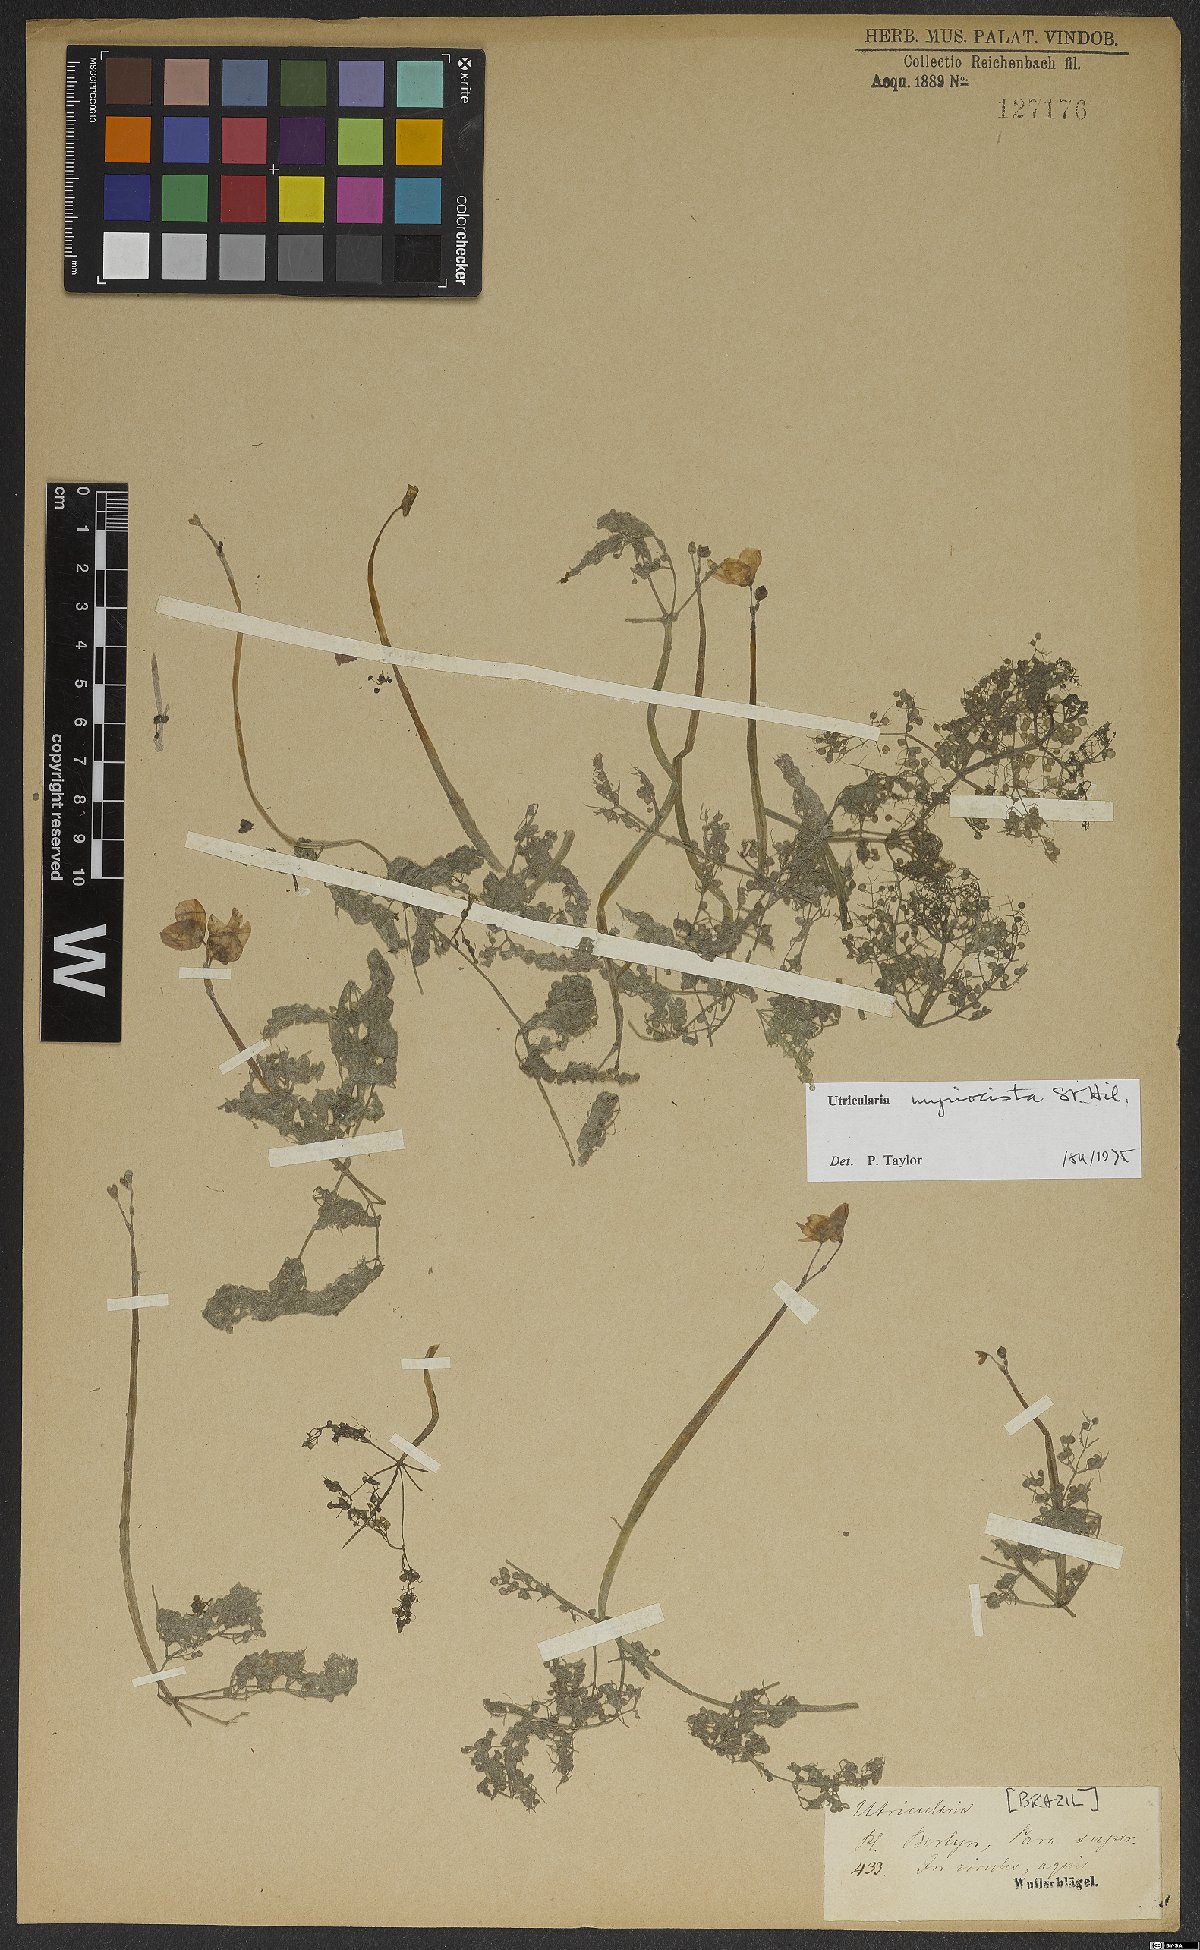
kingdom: Plantae
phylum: Tracheophyta
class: Magnoliopsida
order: Lamiales
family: Lentibulariaceae
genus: Utricularia
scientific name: Utricularia myriocista
